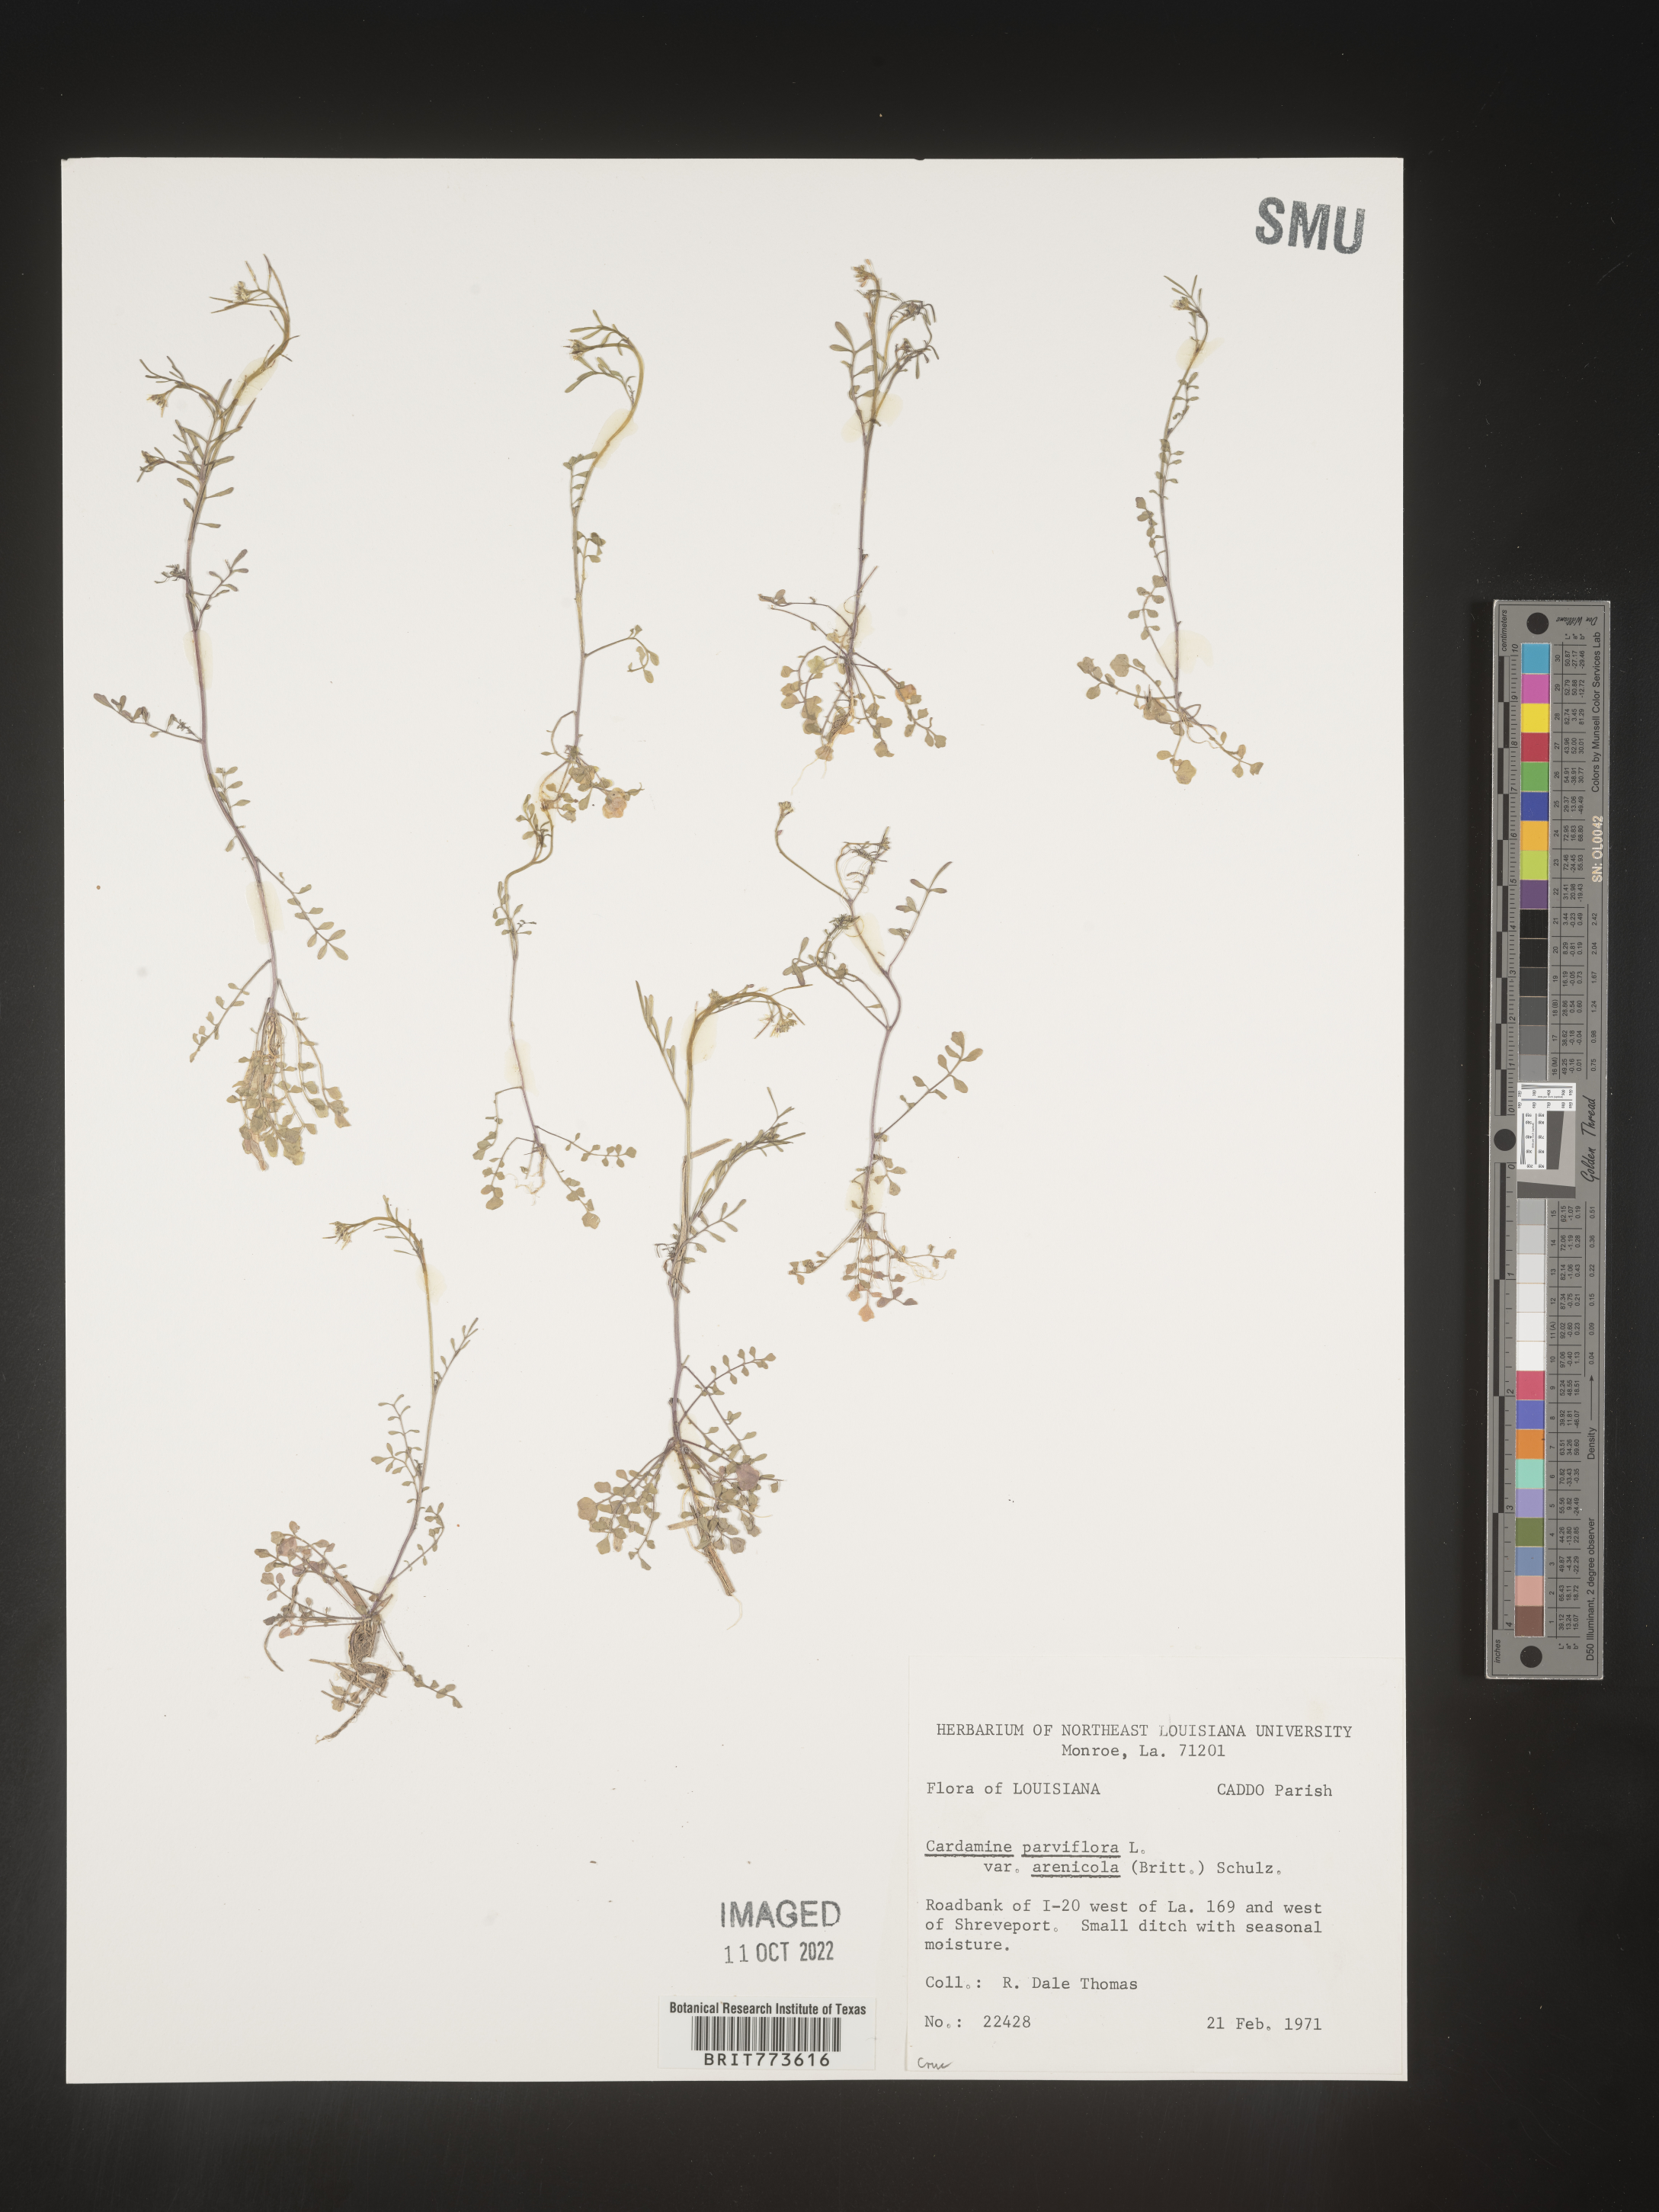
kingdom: Plantae
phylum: Tracheophyta
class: Magnoliopsida
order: Brassicales
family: Brassicaceae
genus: Cardamine
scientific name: Cardamine parviflora
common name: Sand bittercress
